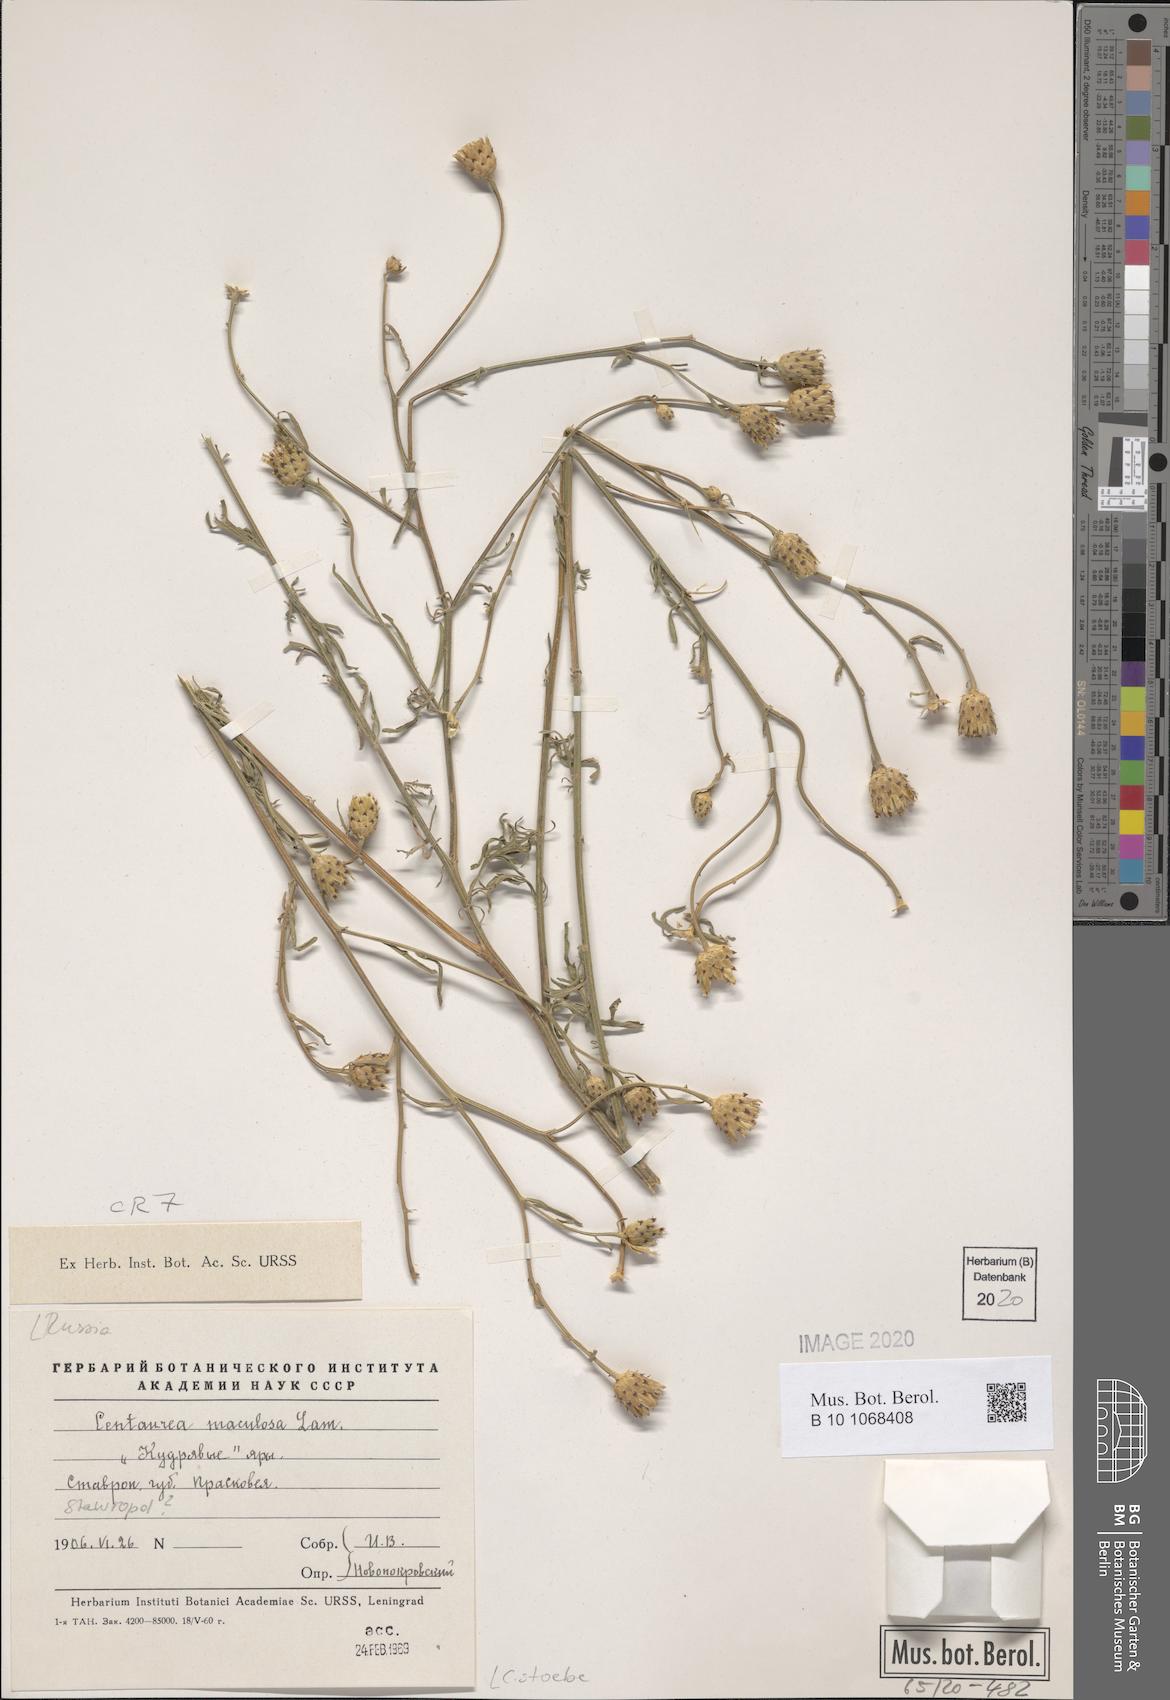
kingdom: Plantae
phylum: Tracheophyta
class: Magnoliopsida
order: Asterales
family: Asteraceae
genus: Centaurea
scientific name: Centaurea stoebe
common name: Spotted knapweed
